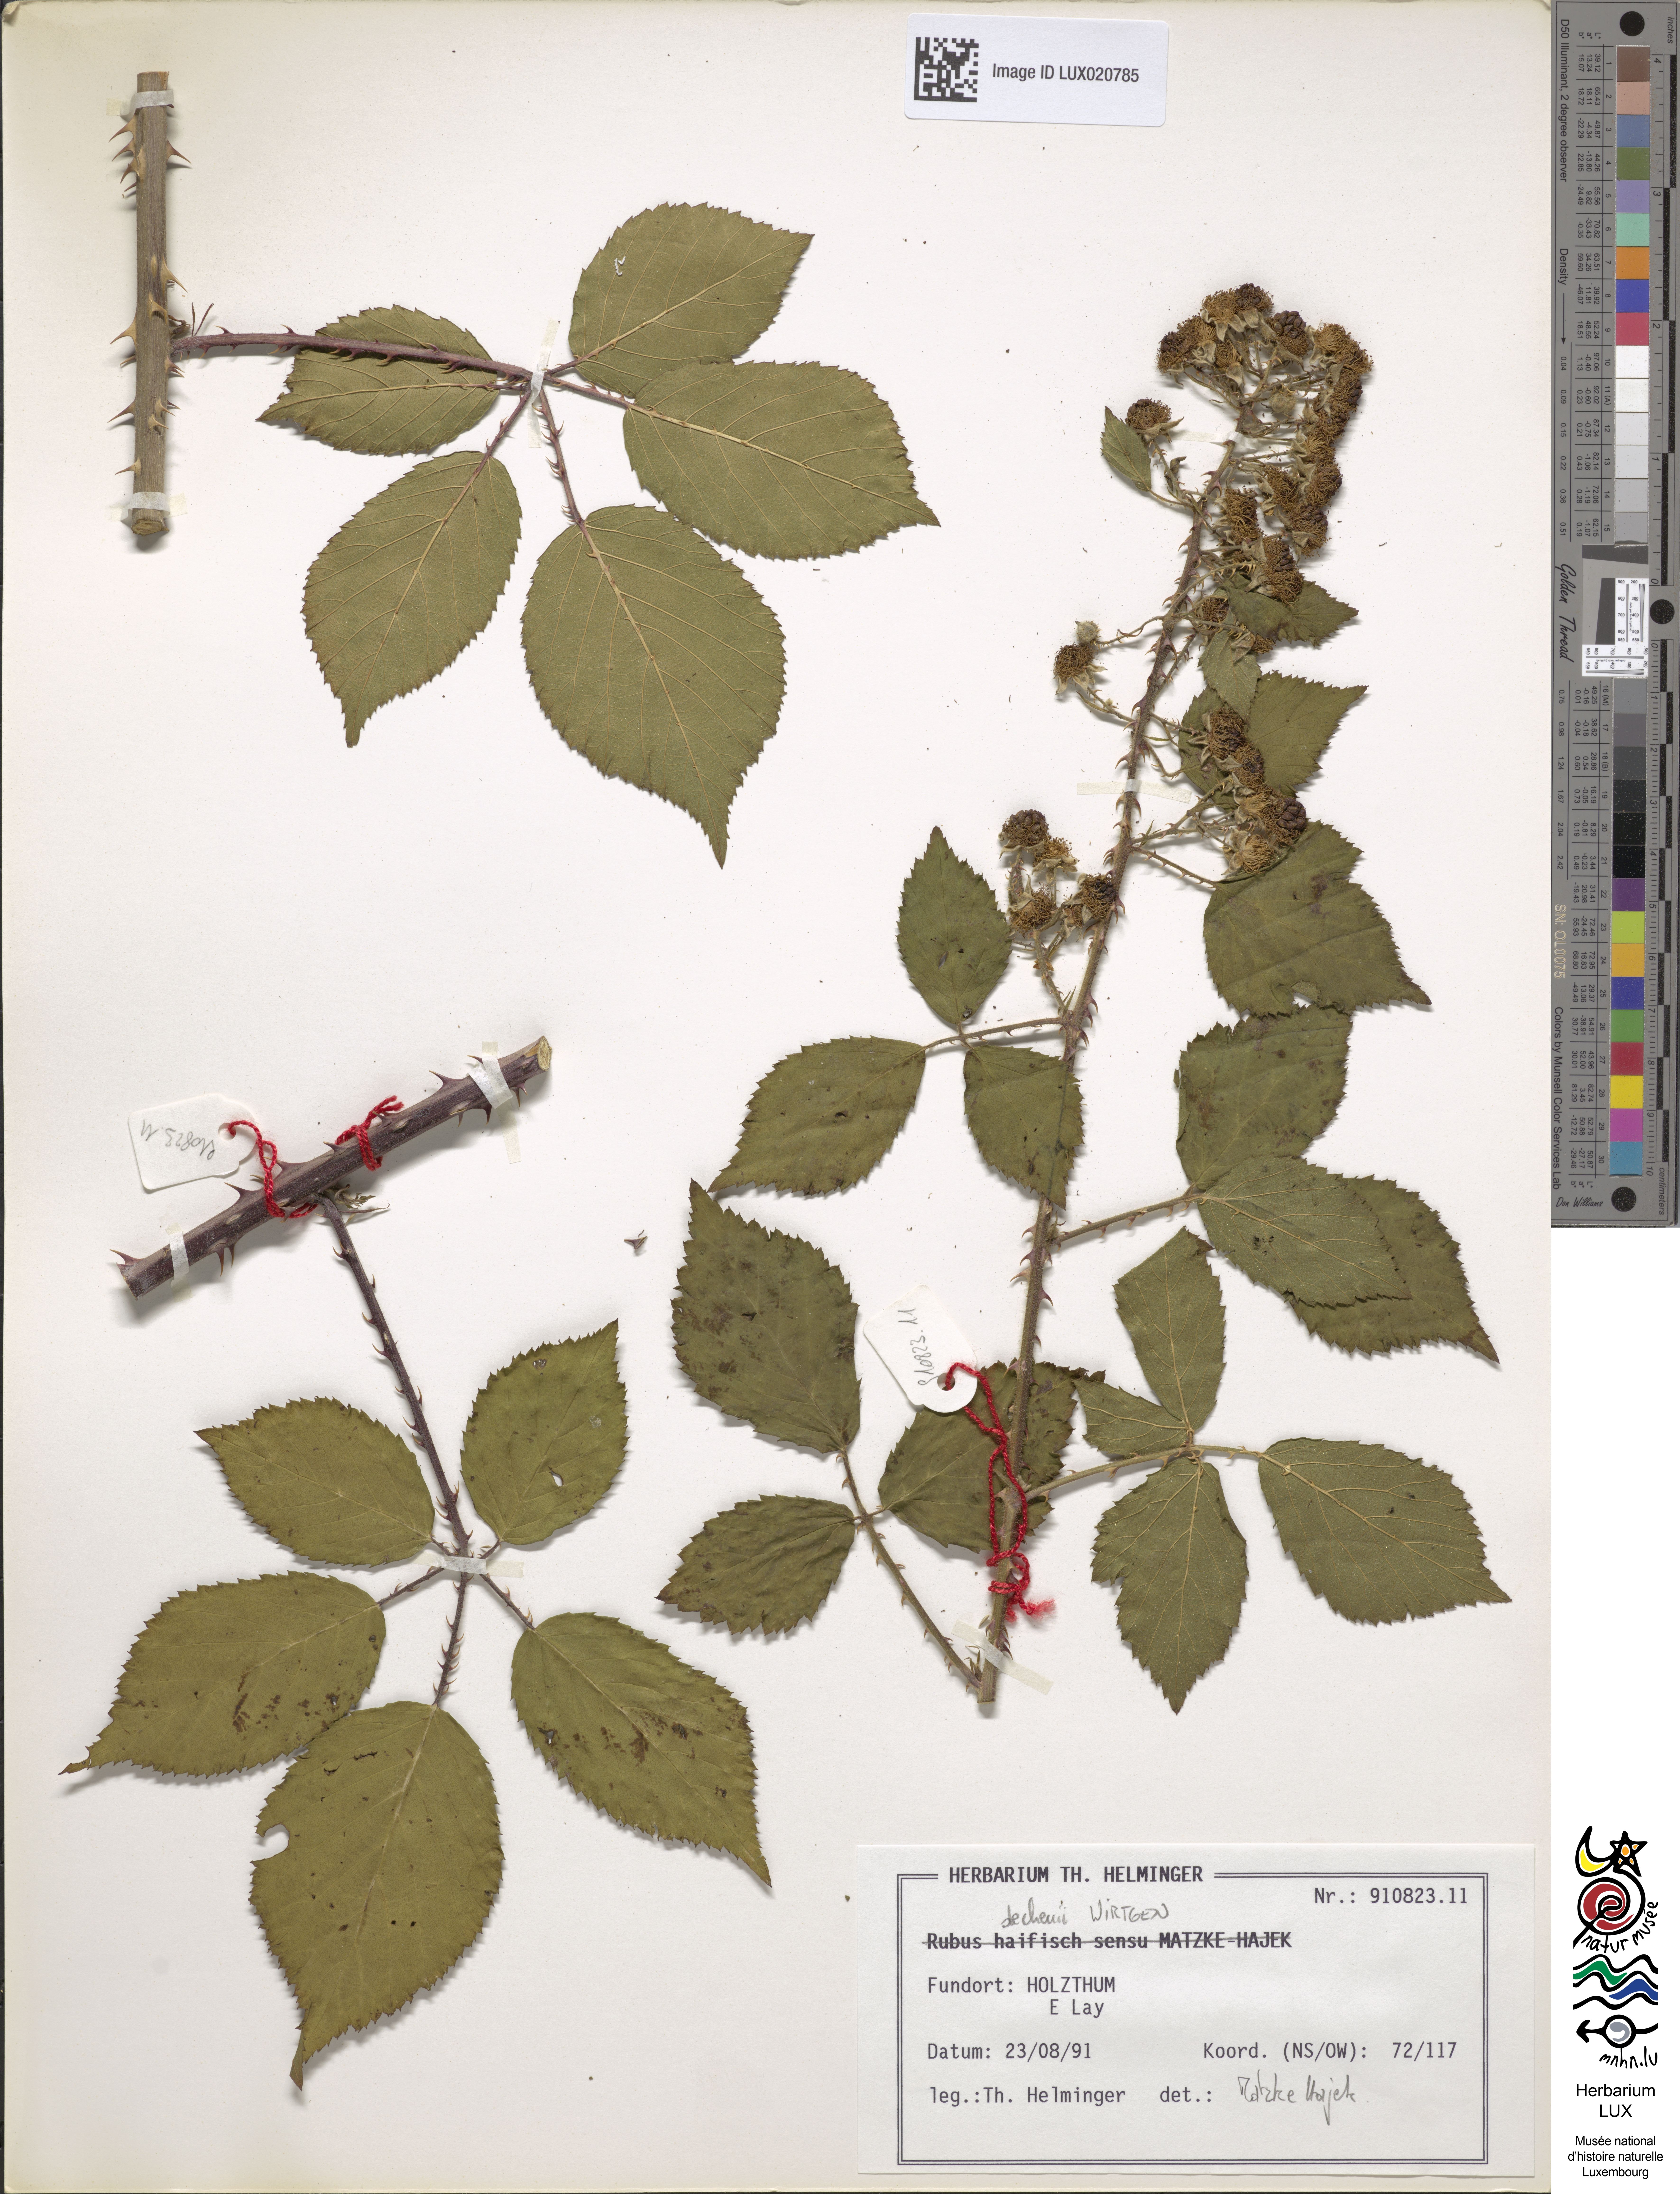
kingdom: Plantae
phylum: Tracheophyta
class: Magnoliopsida
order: Rosales
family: Rosaceae
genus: Rubus
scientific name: Rubus dechenii
